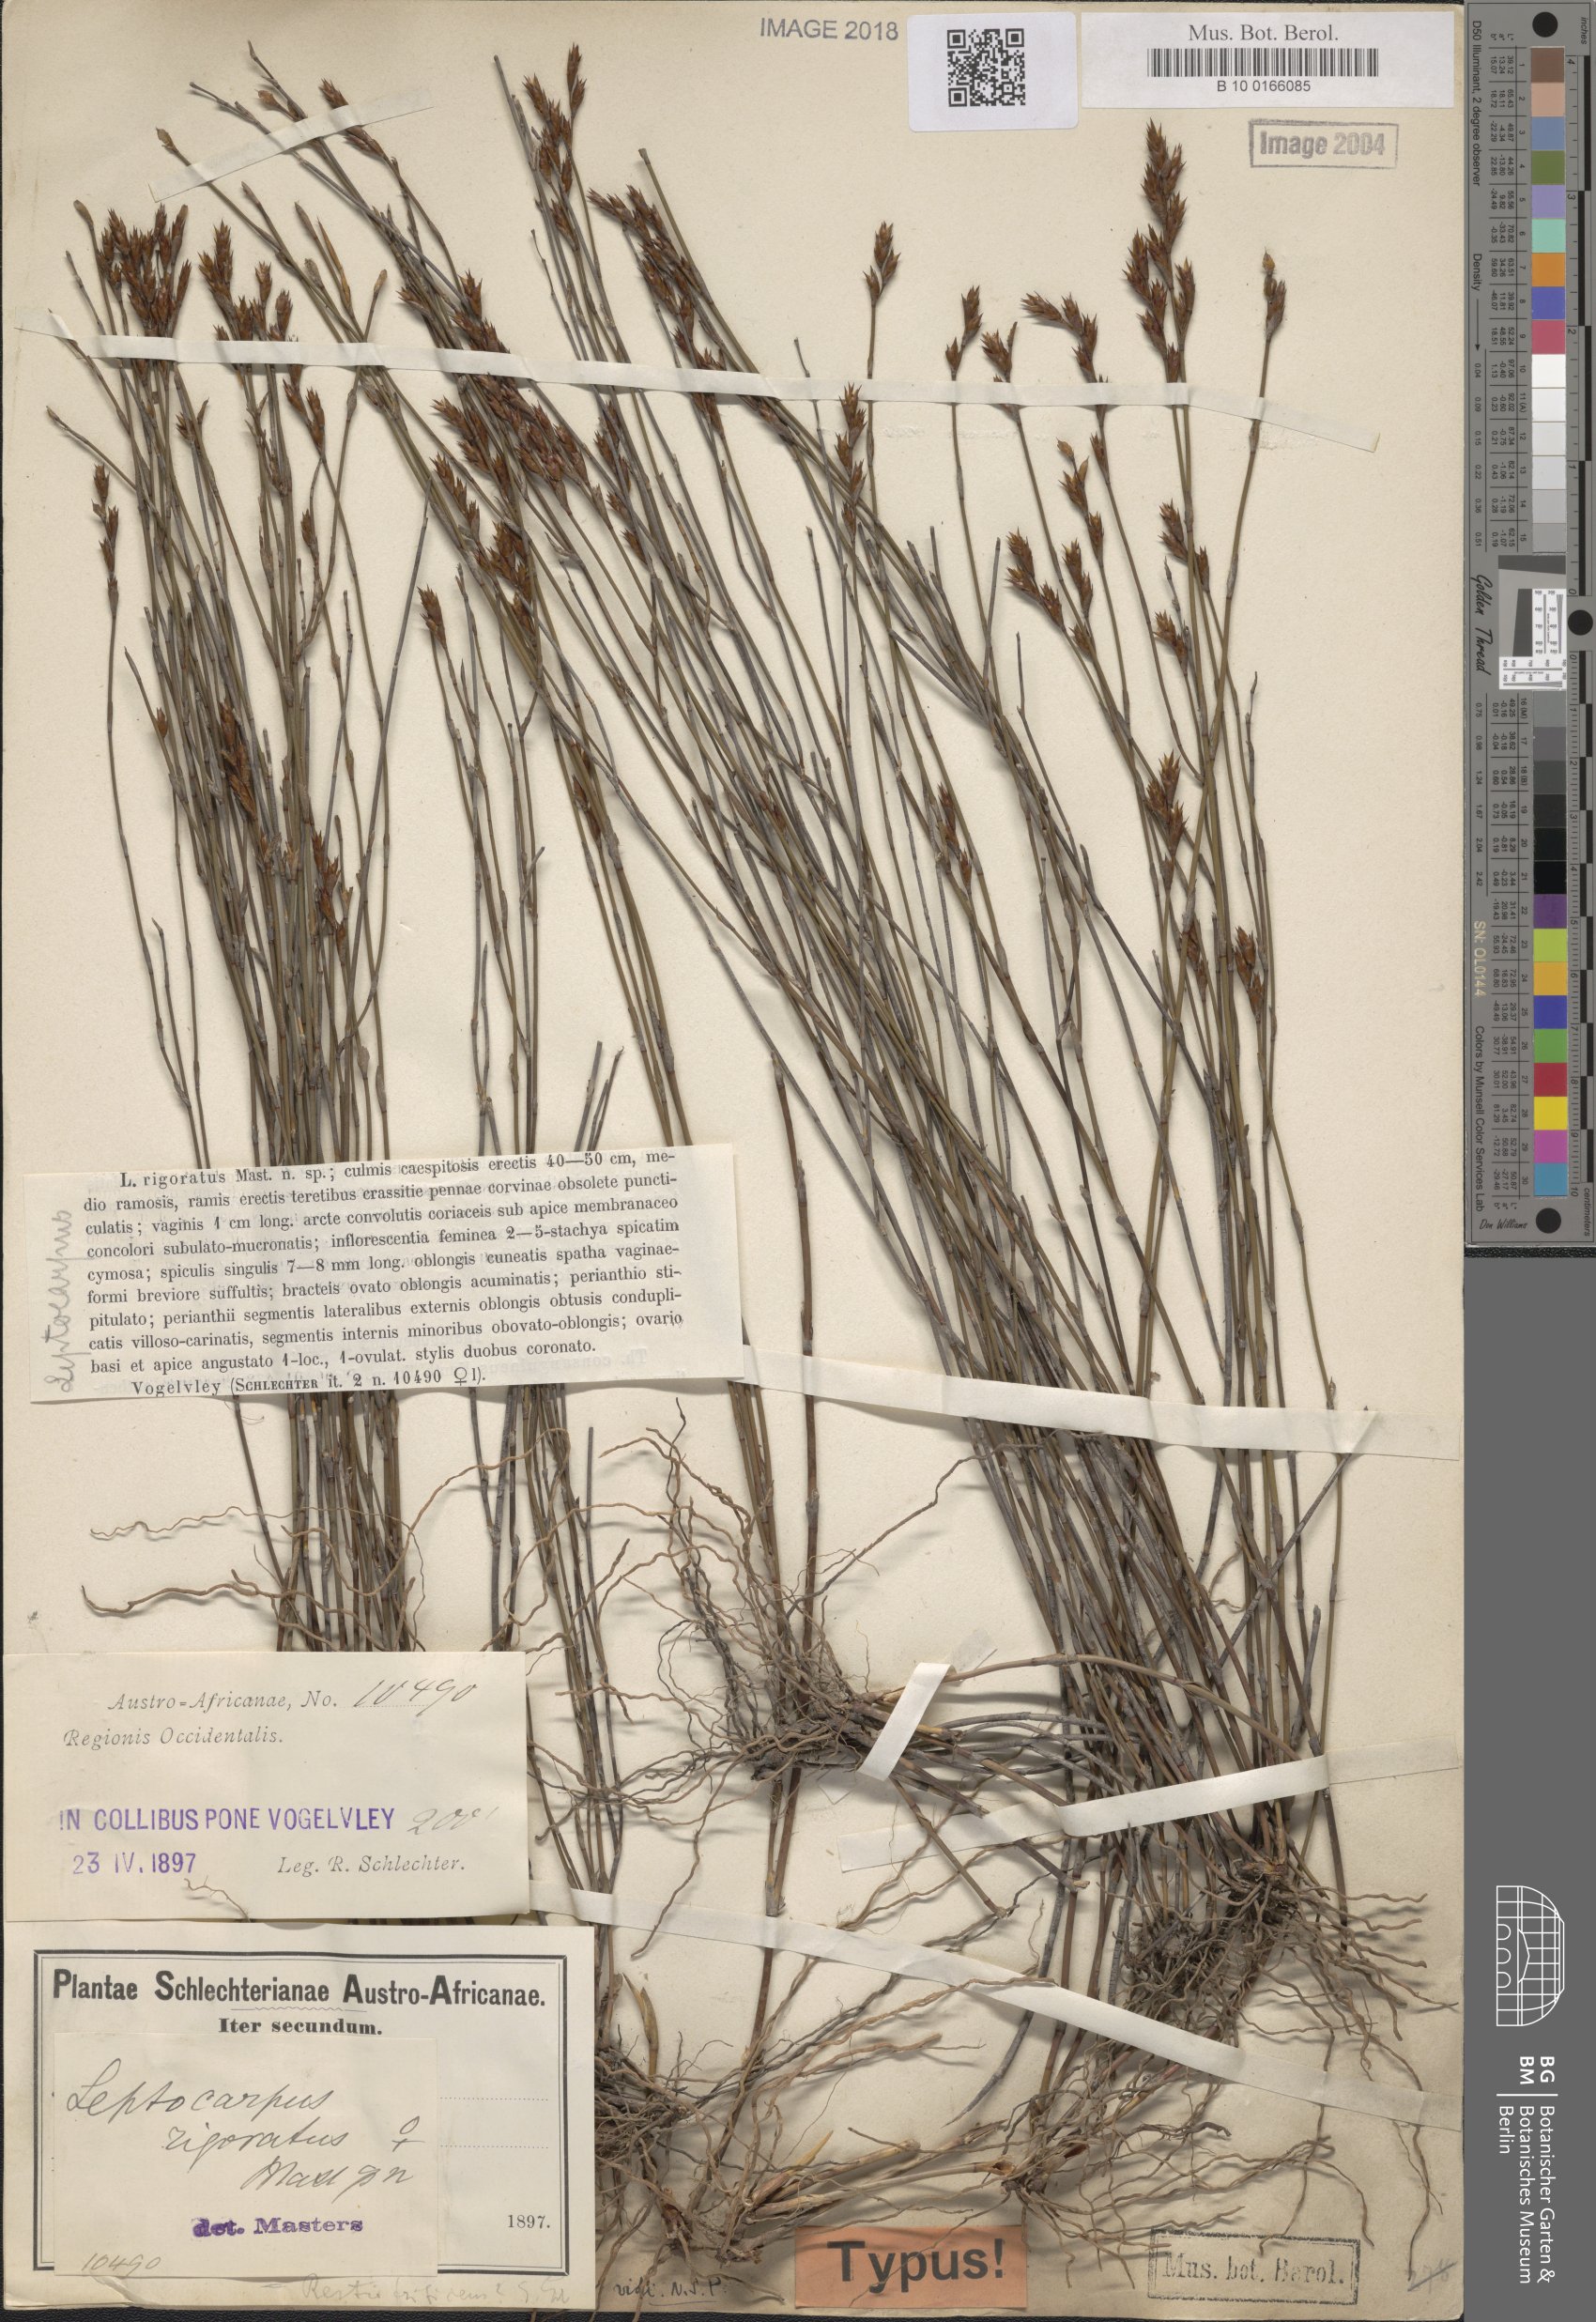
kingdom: Plantae
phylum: Tracheophyta
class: Liliopsida
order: Poales
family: Restionaceae
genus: Restio
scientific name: Restio rigoratus
